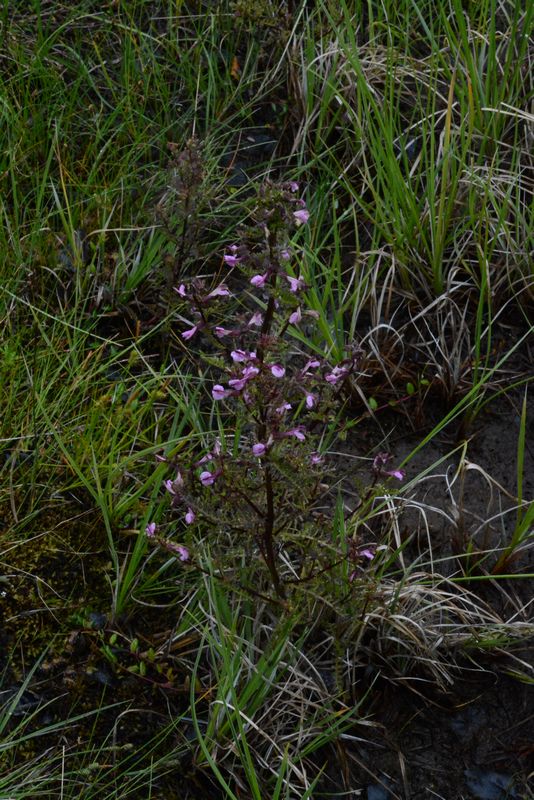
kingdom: Plantae
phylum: Tracheophyta
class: Magnoliopsida
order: Lamiales
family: Orobanchaceae
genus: Pedicularis
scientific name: Pedicularis palustris
